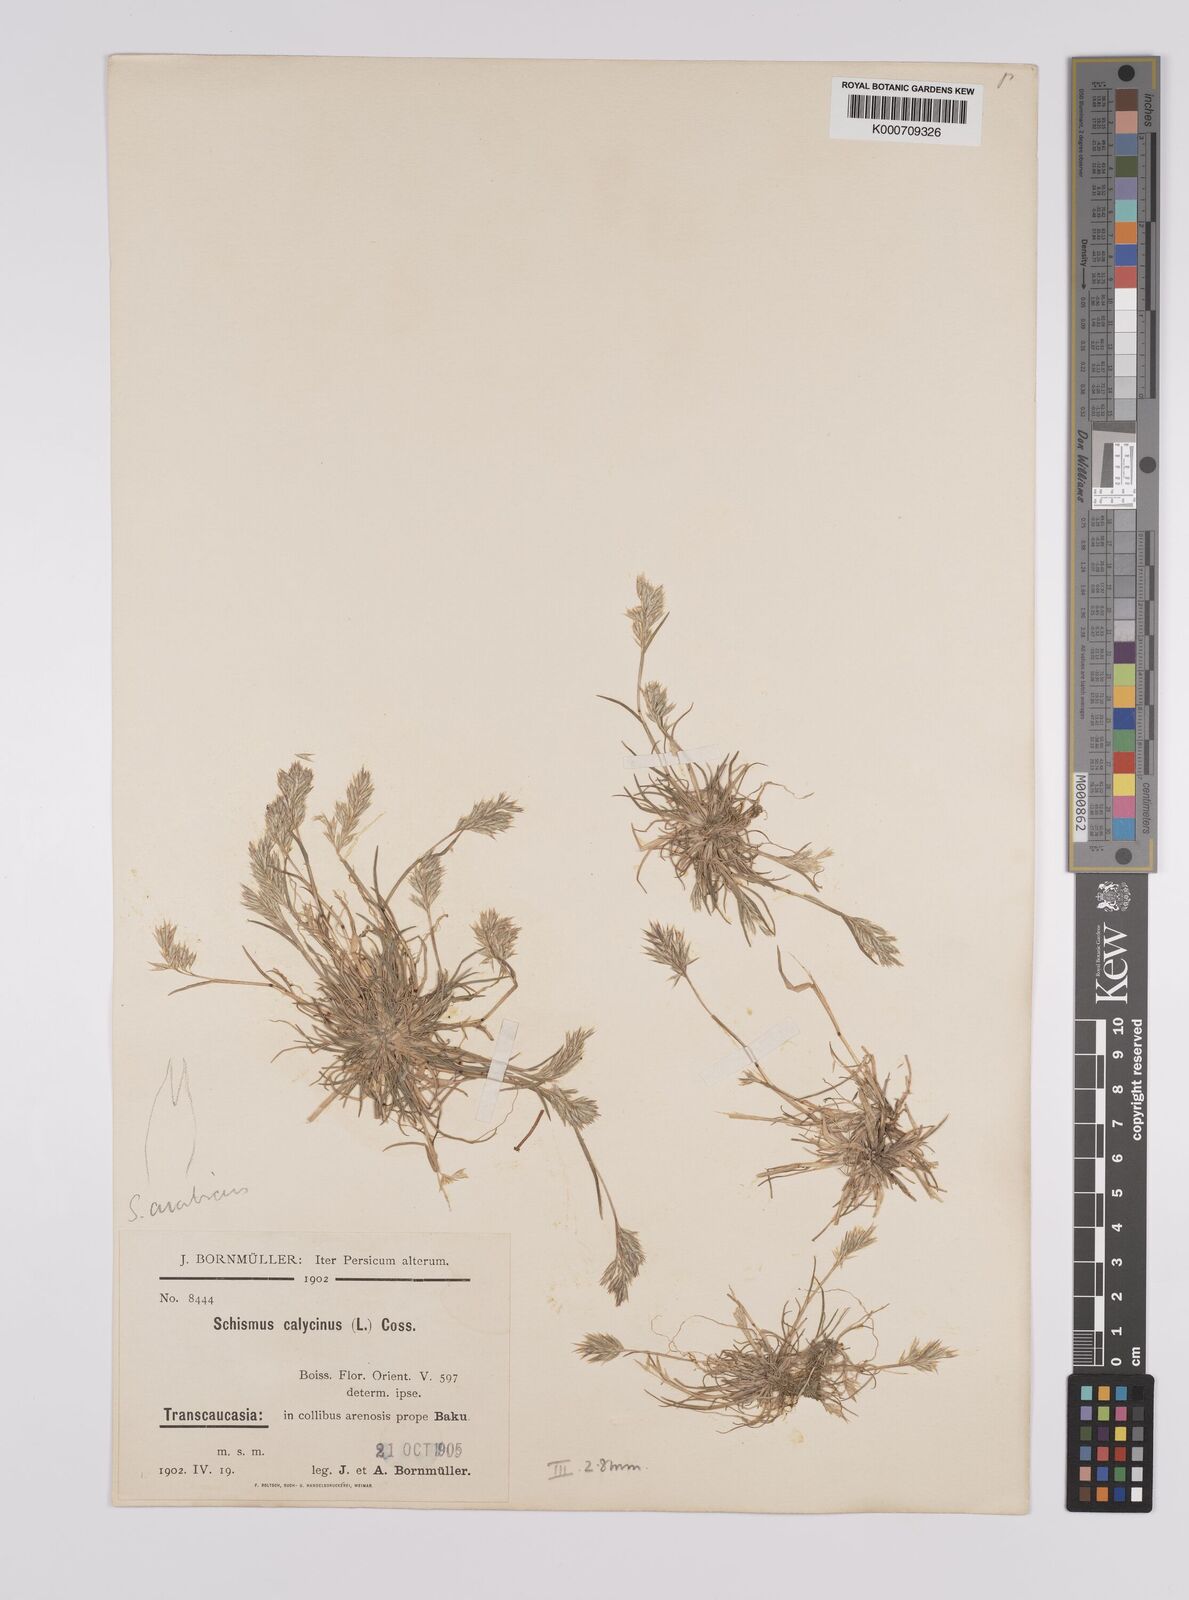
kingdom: Plantae
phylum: Tracheophyta
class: Liliopsida
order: Poales
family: Poaceae
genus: Schismus
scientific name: Schismus arabicus
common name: Arabian schismus
